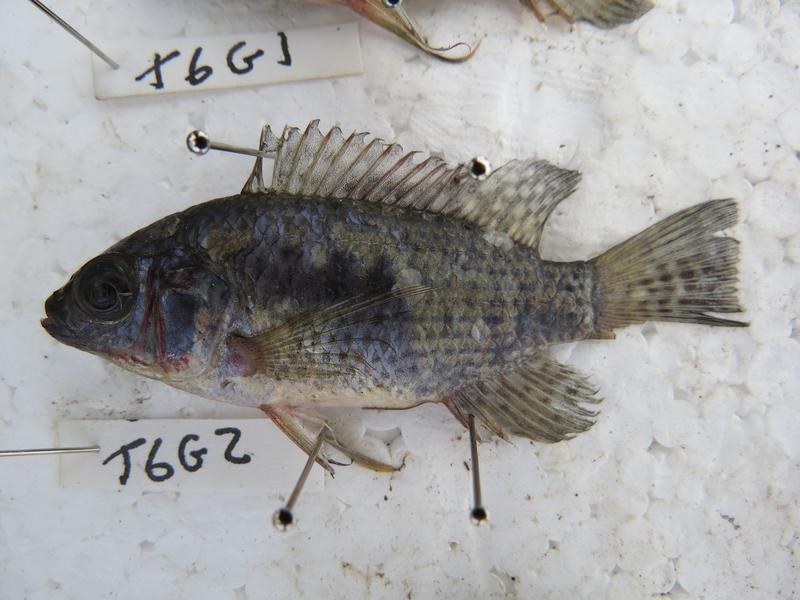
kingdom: Animalia
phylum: Chordata
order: Perciformes
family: Cichlidae
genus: Oreochromis
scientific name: Oreochromis leucostictus
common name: Blue spotted tilapia
